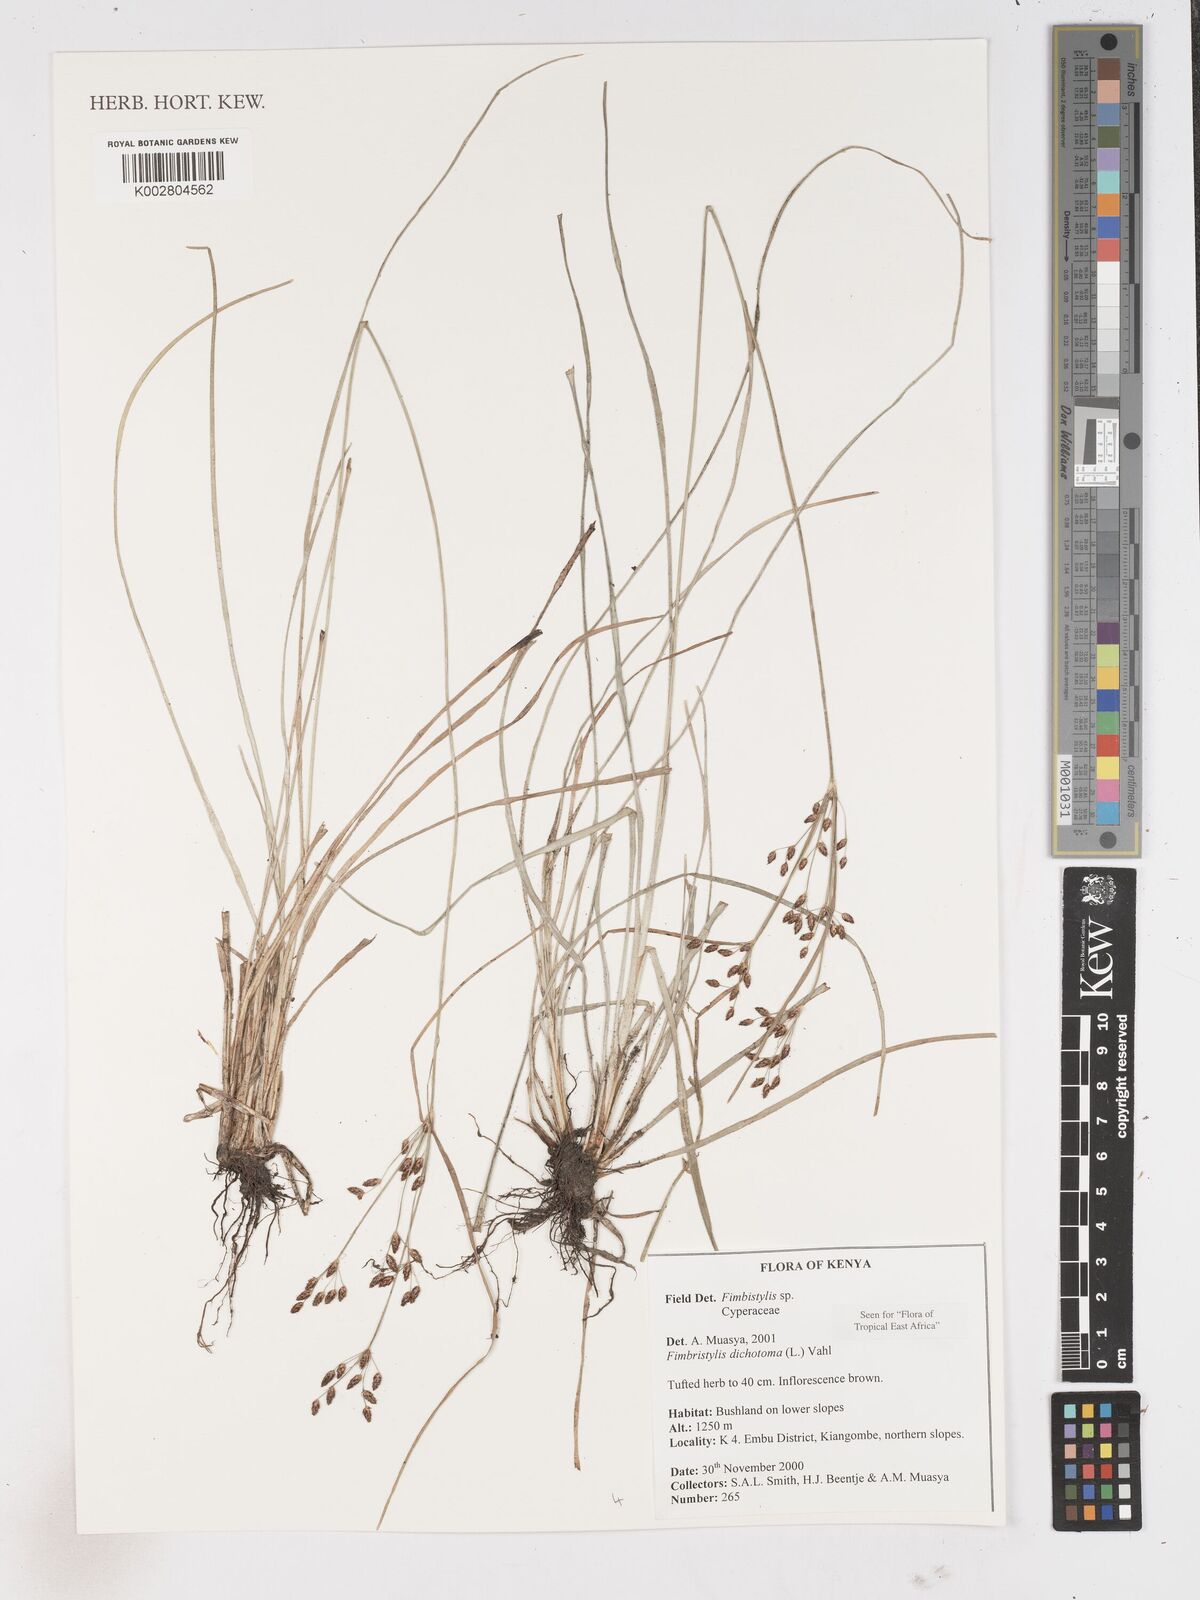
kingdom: Plantae
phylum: Tracheophyta
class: Liliopsida
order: Poales
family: Cyperaceae
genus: Fimbristylis
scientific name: Fimbristylis dichotoma
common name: Forked fimbry
